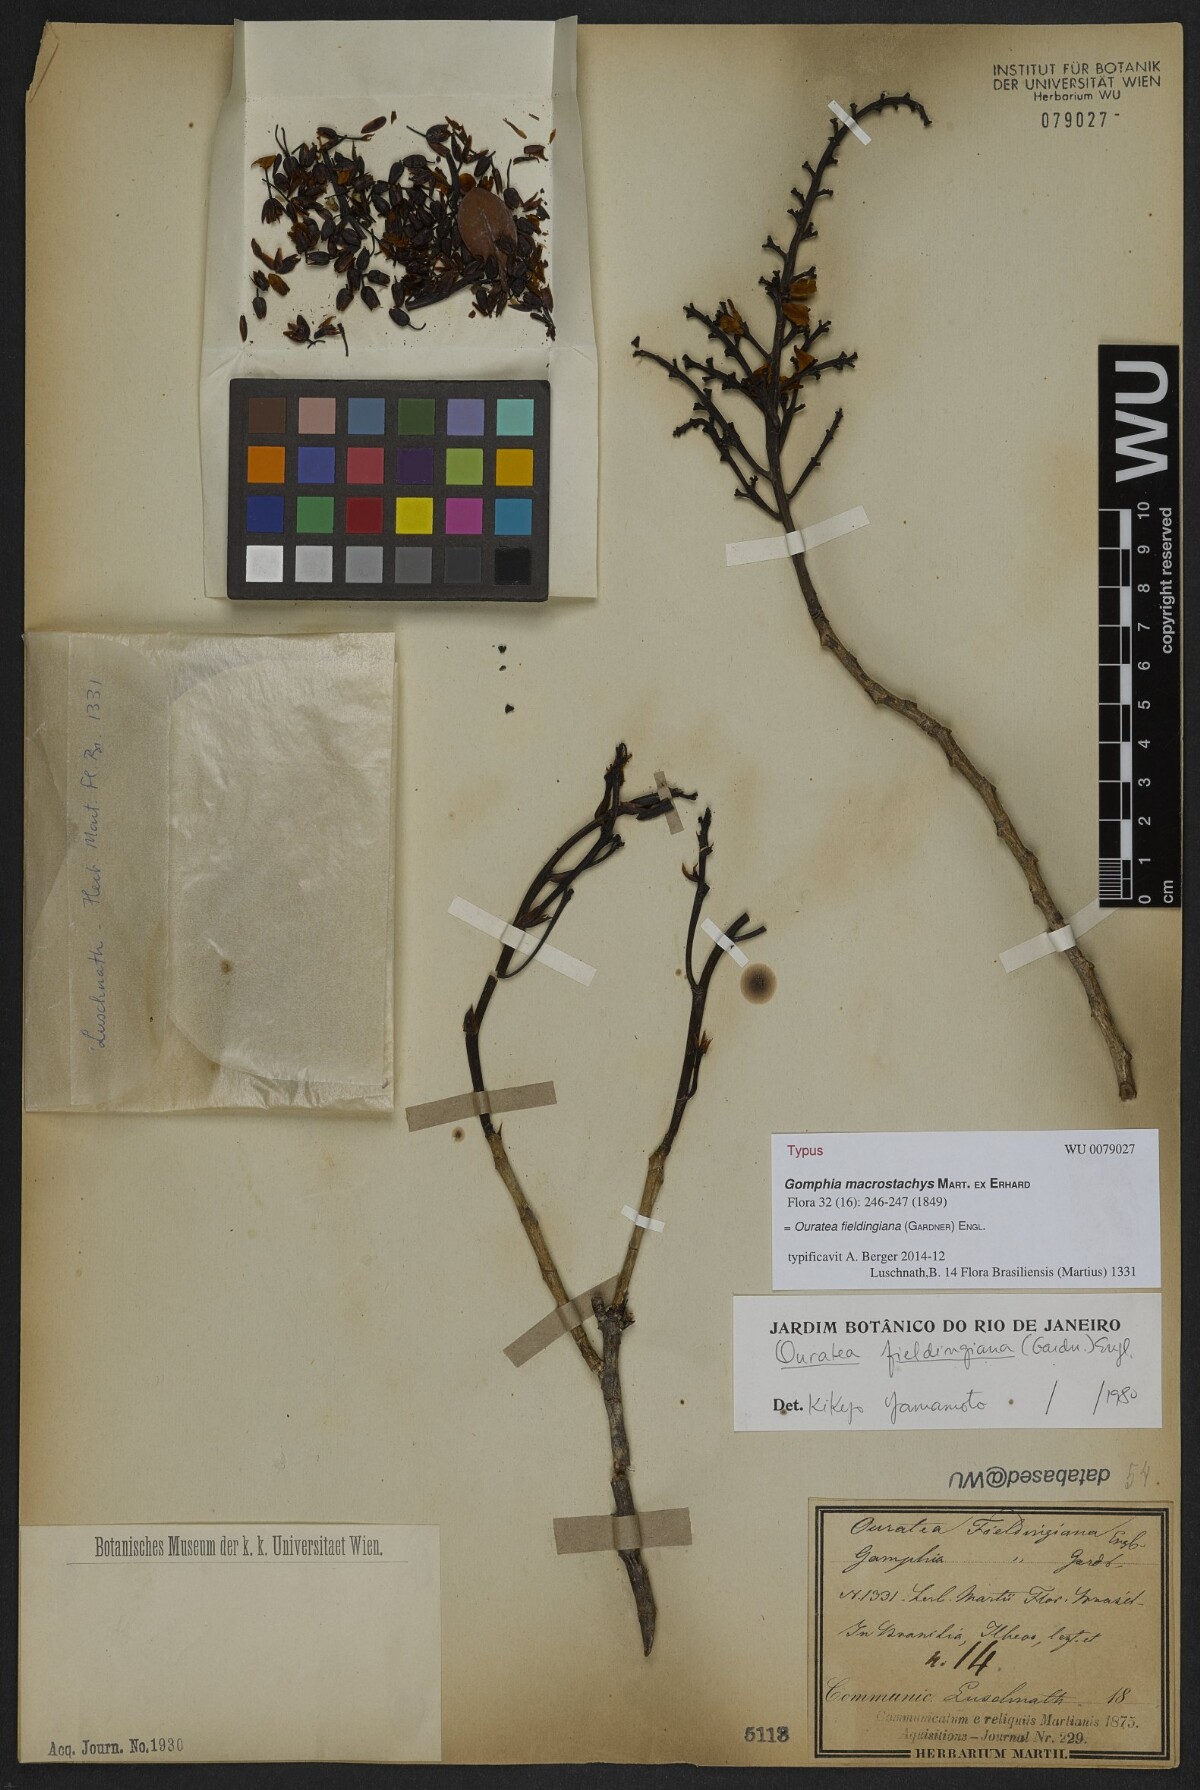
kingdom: Plantae
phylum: Tracheophyta
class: Magnoliopsida
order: Malpighiales
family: Ochnaceae
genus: Ouratea
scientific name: Ouratea fieldingiana
